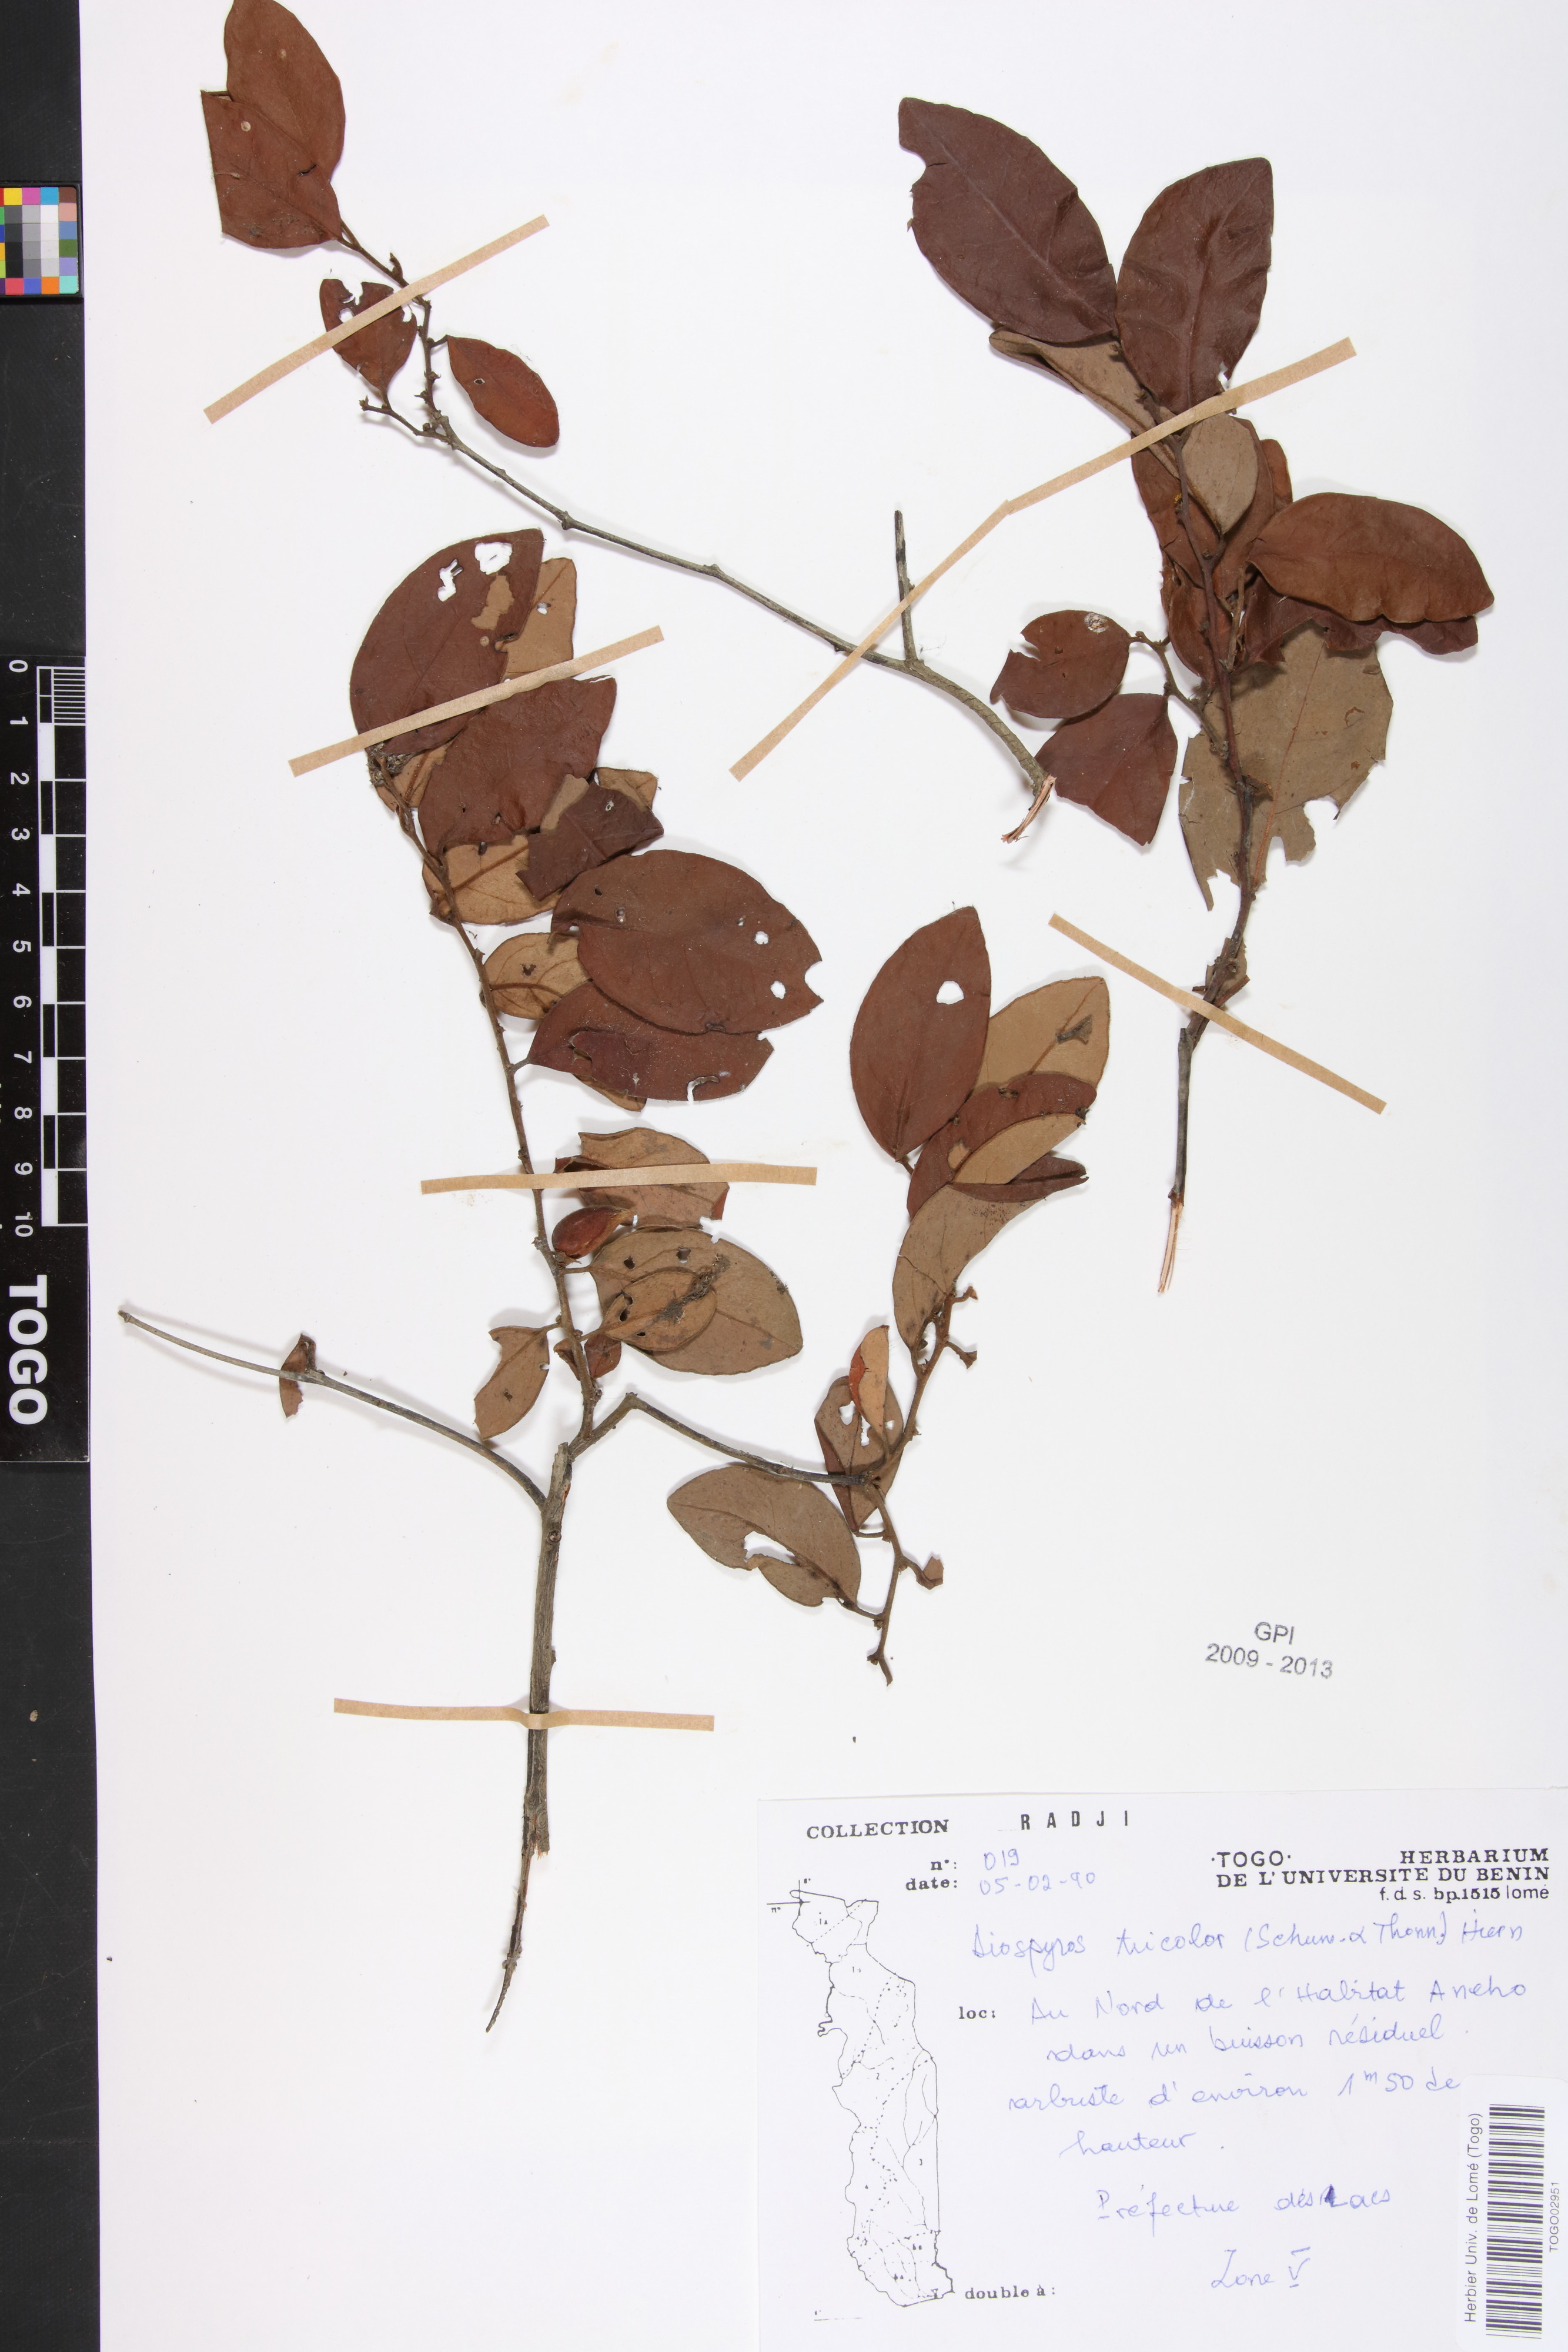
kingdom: Plantae
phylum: Tracheophyta
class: Magnoliopsida
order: Ericales
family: Ebenaceae
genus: Diospyros
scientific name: Diospyros tricolor
